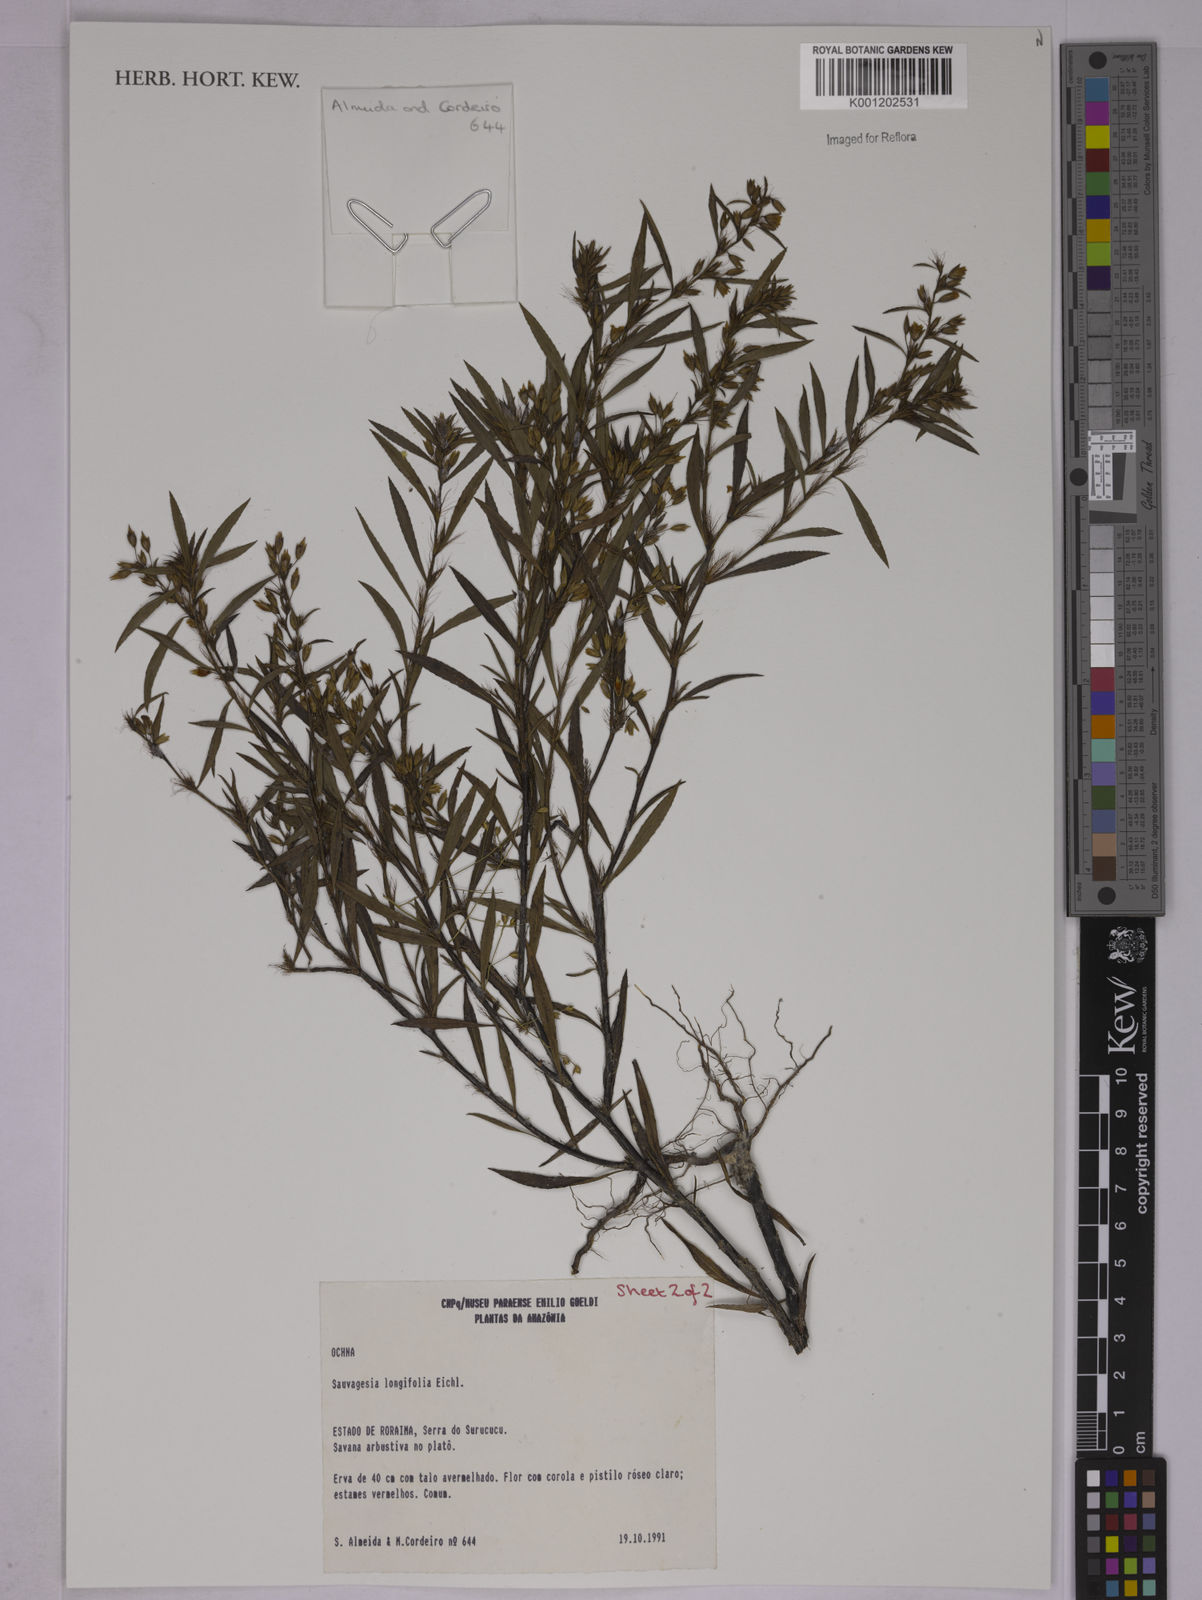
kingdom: Plantae
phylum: Tracheophyta
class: Magnoliopsida
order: Malpighiales
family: Ochnaceae
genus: Sauvagesia
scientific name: Sauvagesia longifolia
